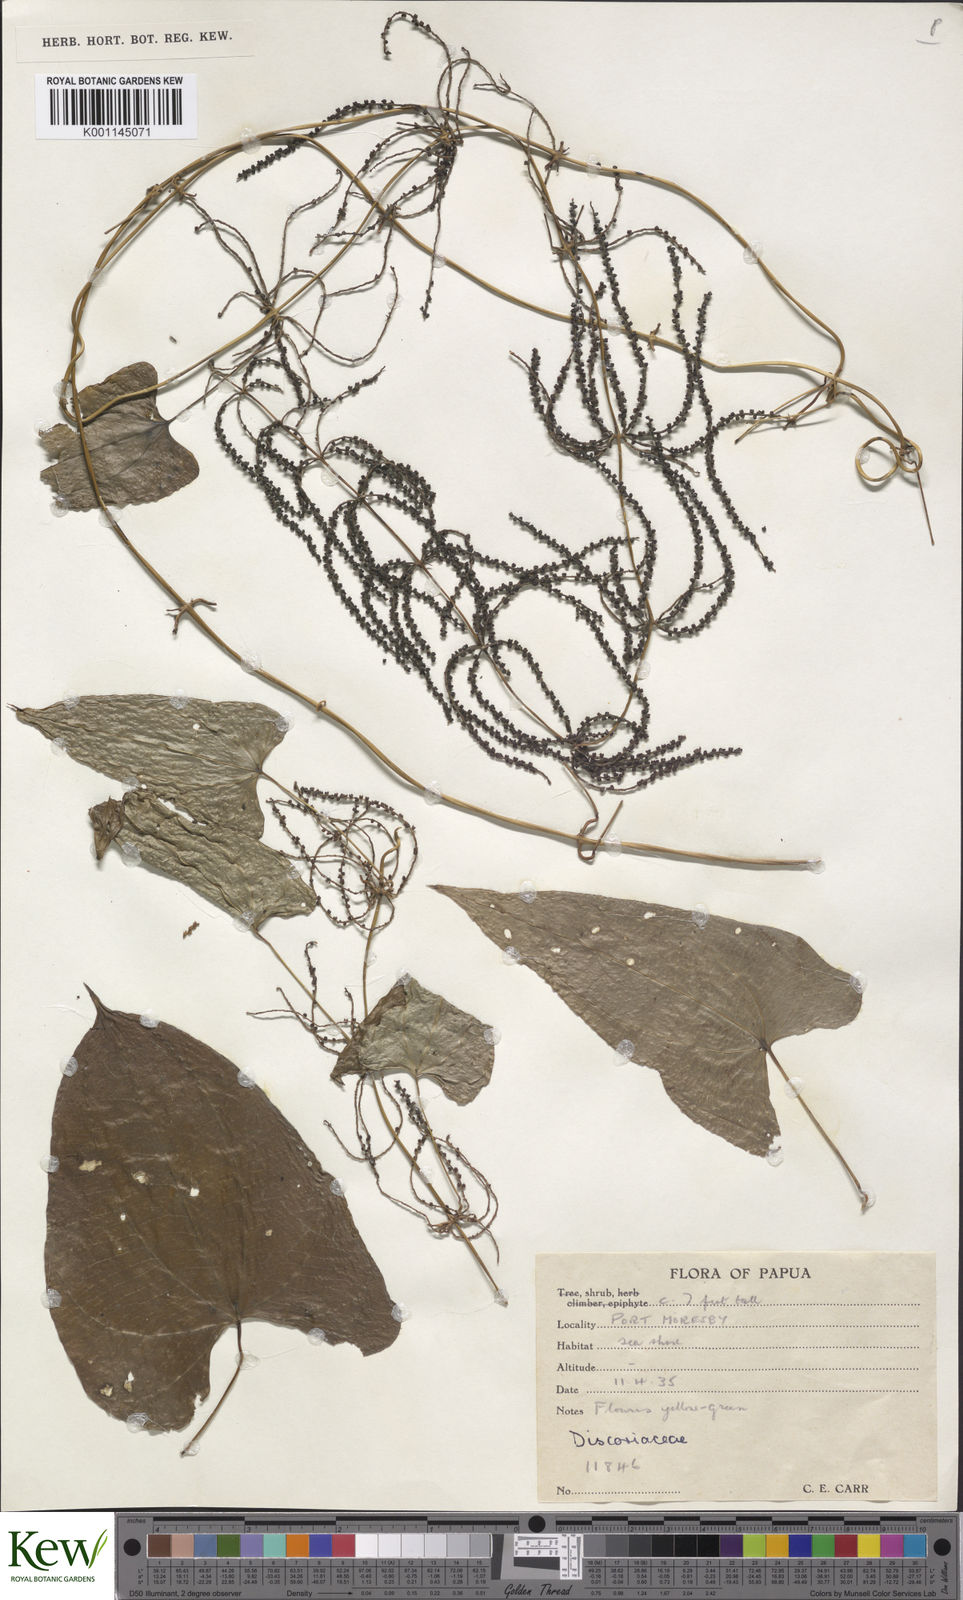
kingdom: Plantae
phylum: Tracheophyta
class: Liliopsida
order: Dioscoreales
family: Dioscoreaceae
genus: Dioscorea
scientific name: Dioscorea
